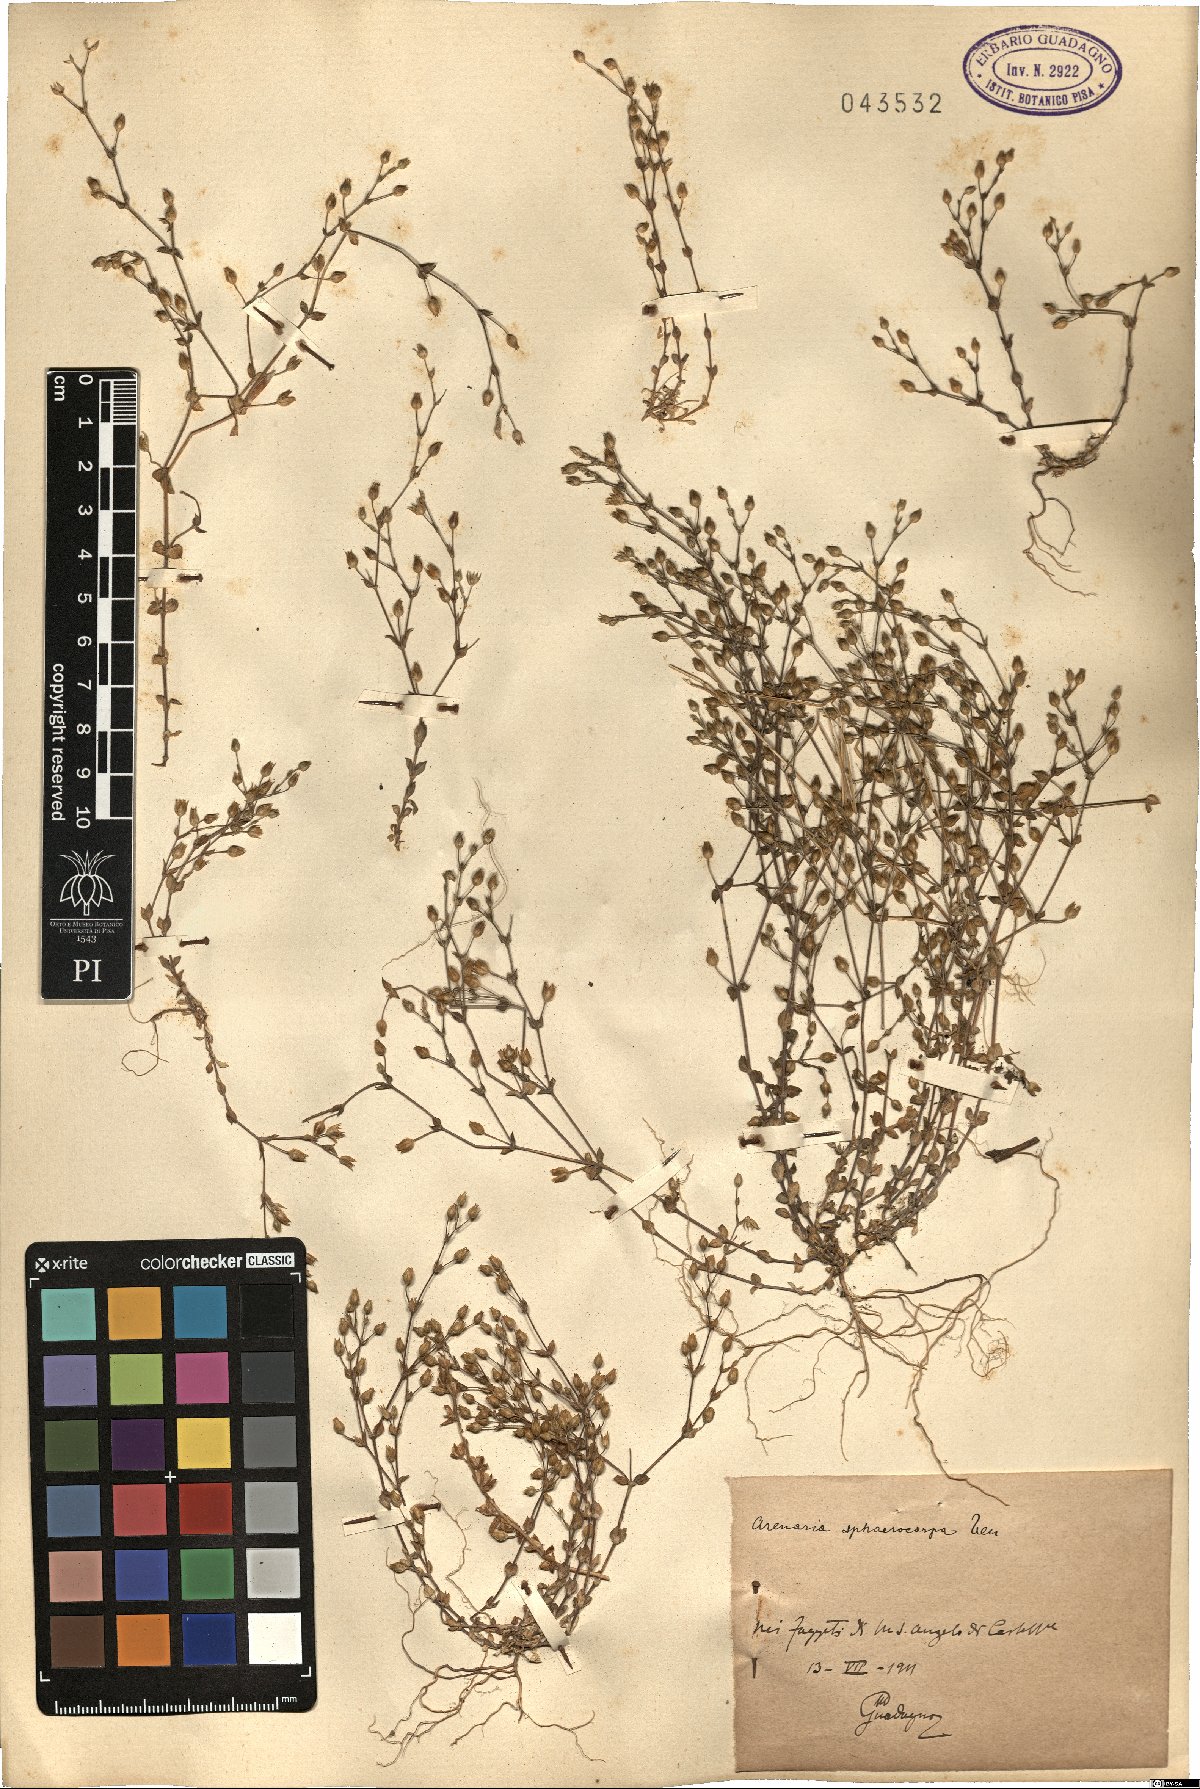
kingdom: Plantae
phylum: Tracheophyta
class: Magnoliopsida
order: Caryophyllales
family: Caryophyllaceae
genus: Arenaria
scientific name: Arenaria serpyllifolia
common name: Thyme-leaved sandwort
